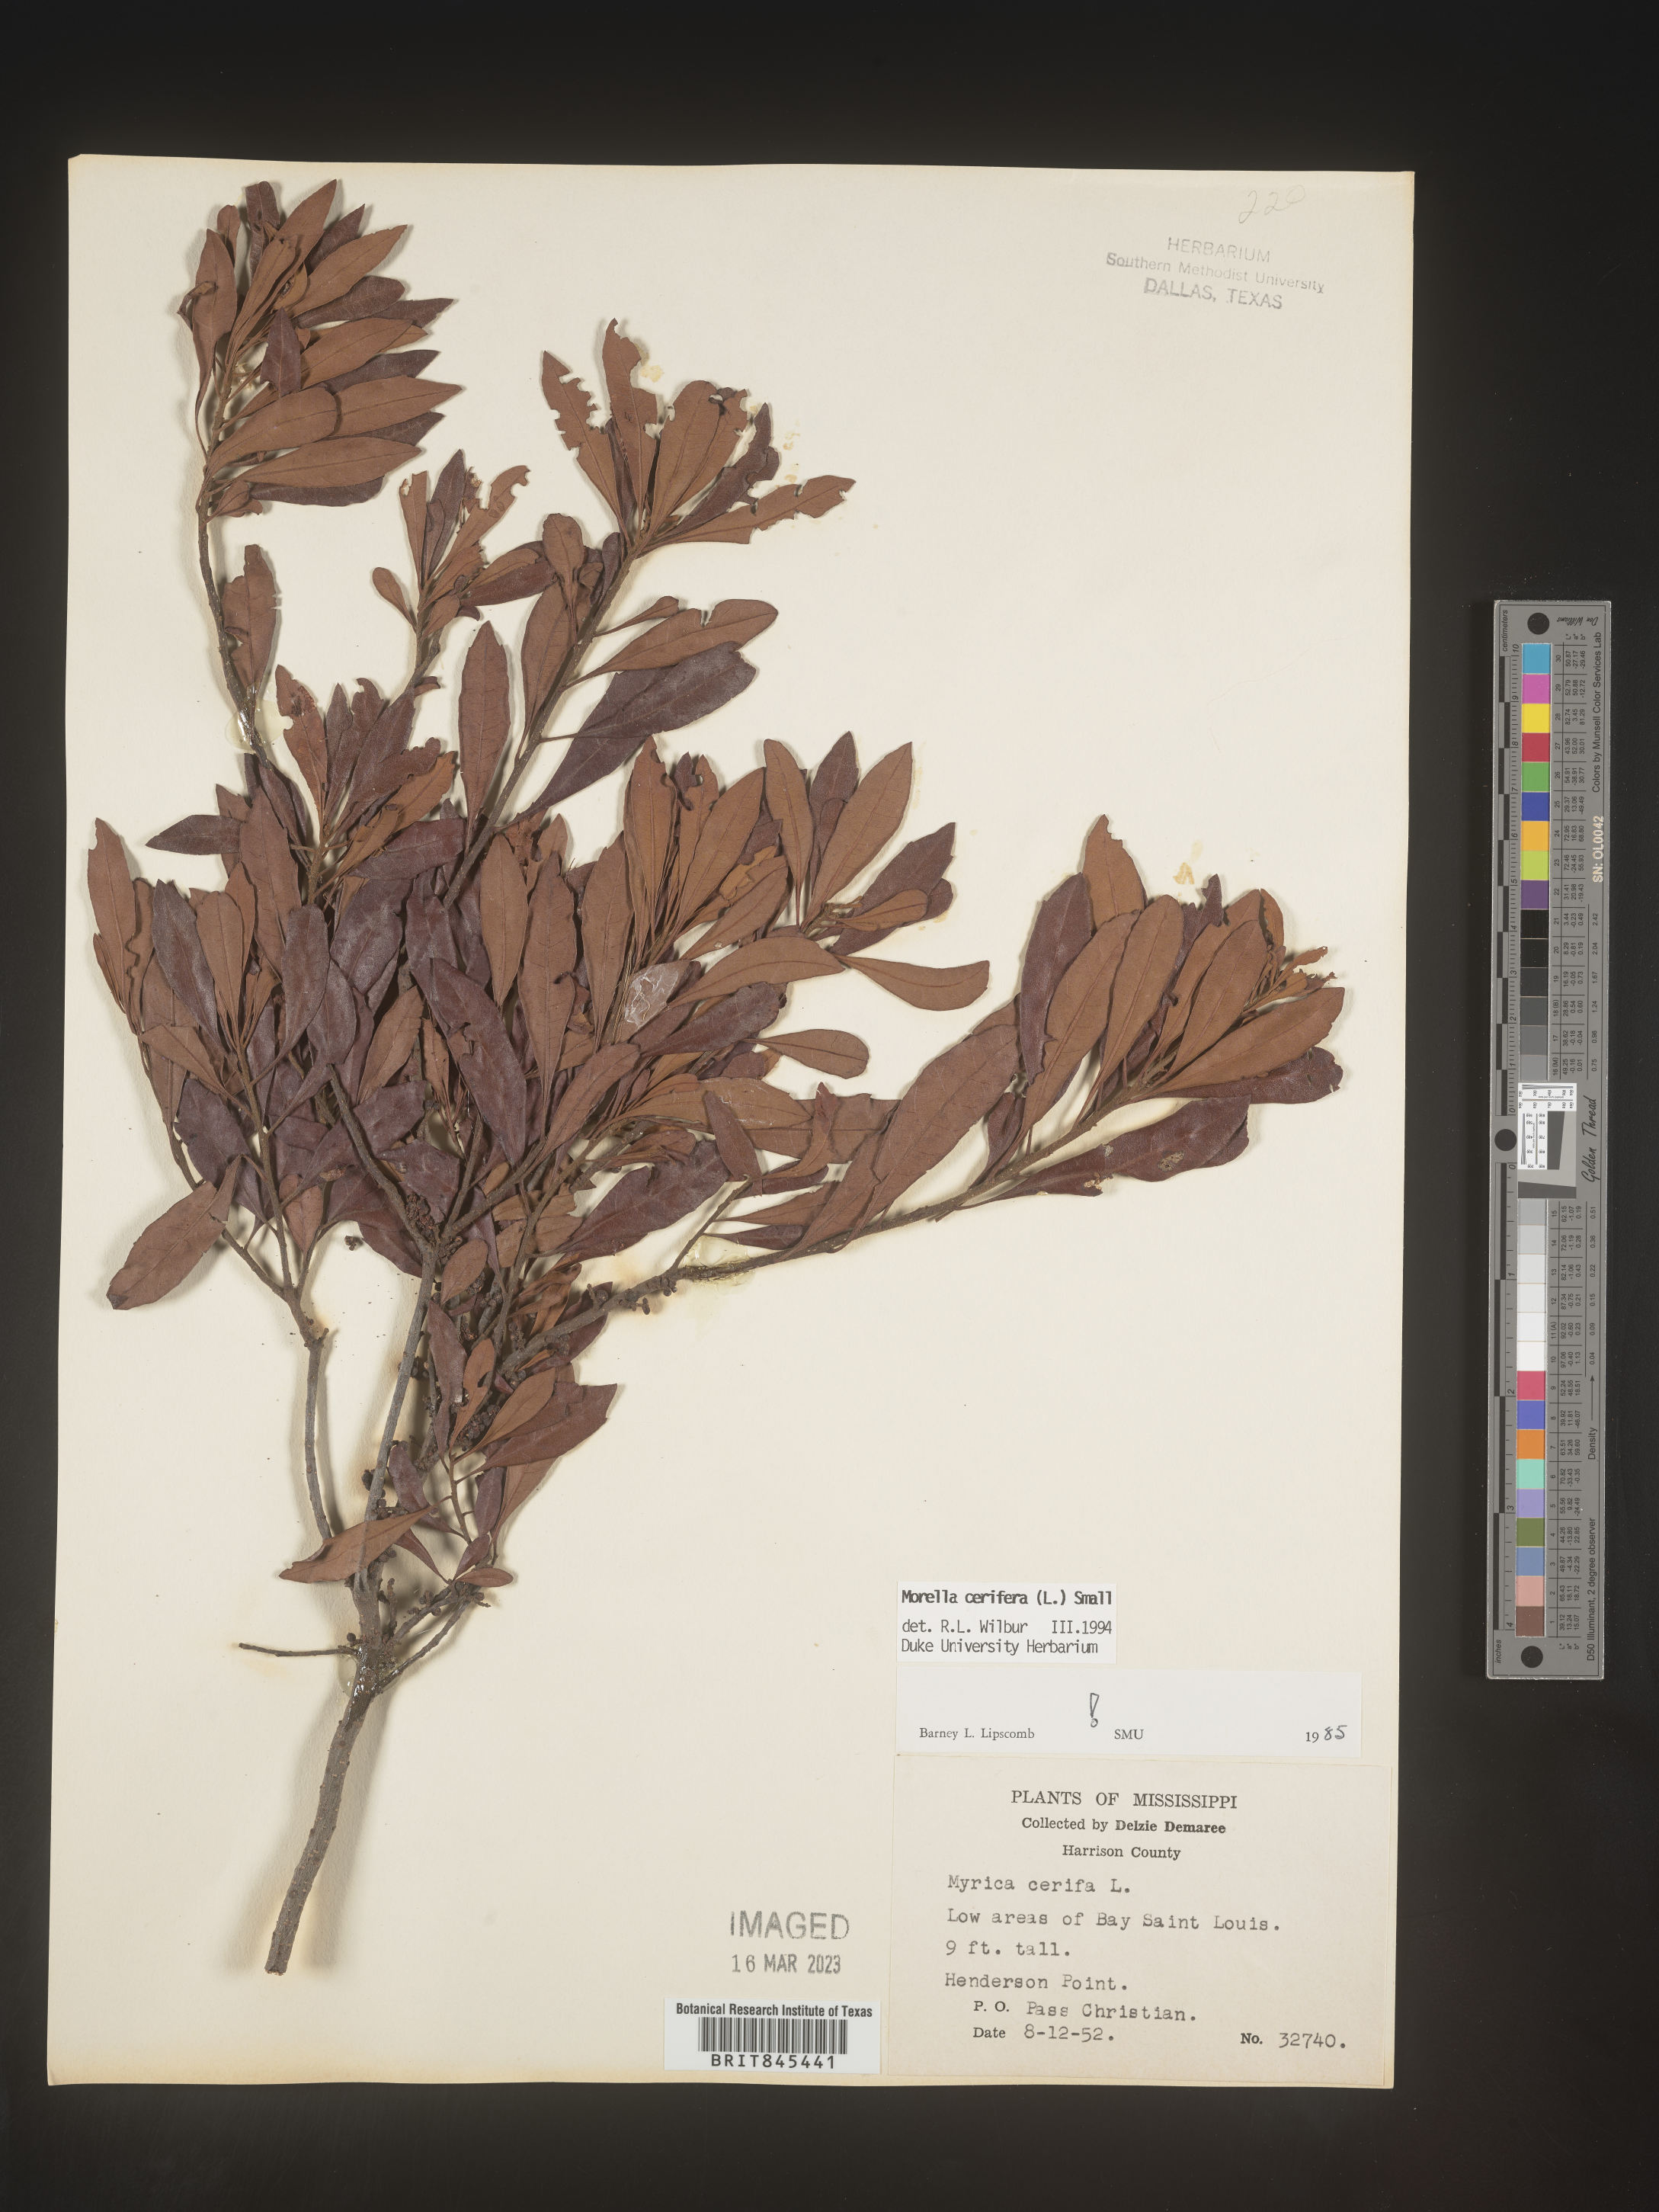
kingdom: Plantae
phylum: Tracheophyta
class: Magnoliopsida
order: Fagales
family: Myricaceae
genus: Morella
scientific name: Morella cerifera
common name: Wax myrtle
